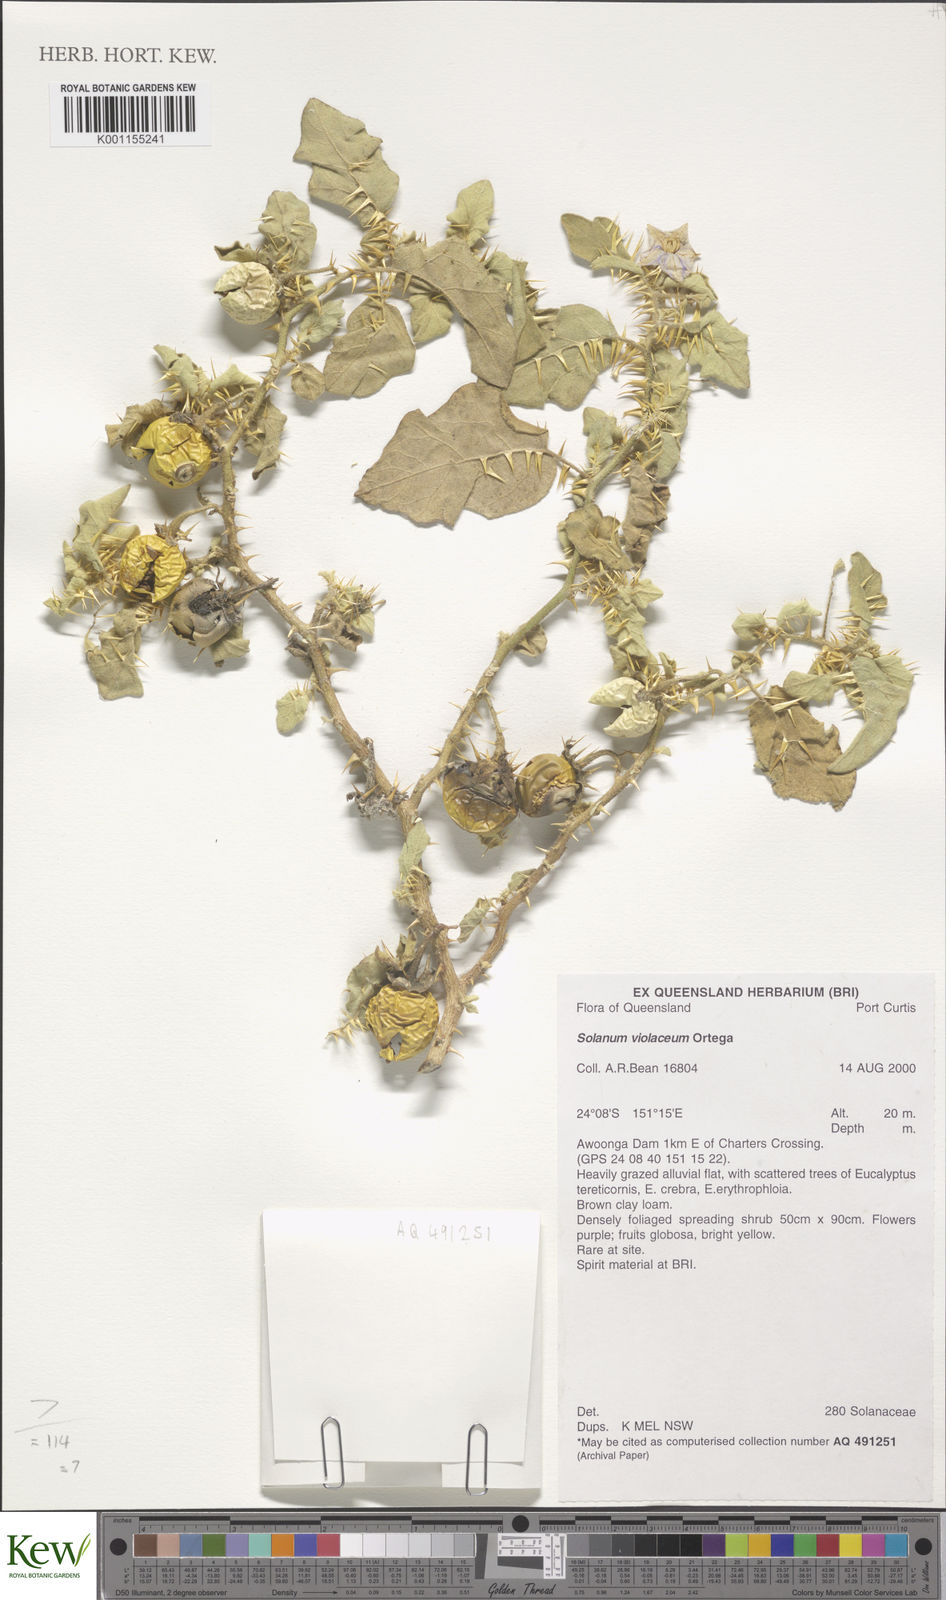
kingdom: Plantae
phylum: Tracheophyta
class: Magnoliopsida
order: Solanales
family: Solanaceae
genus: Solanum
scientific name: Solanum violaceum
